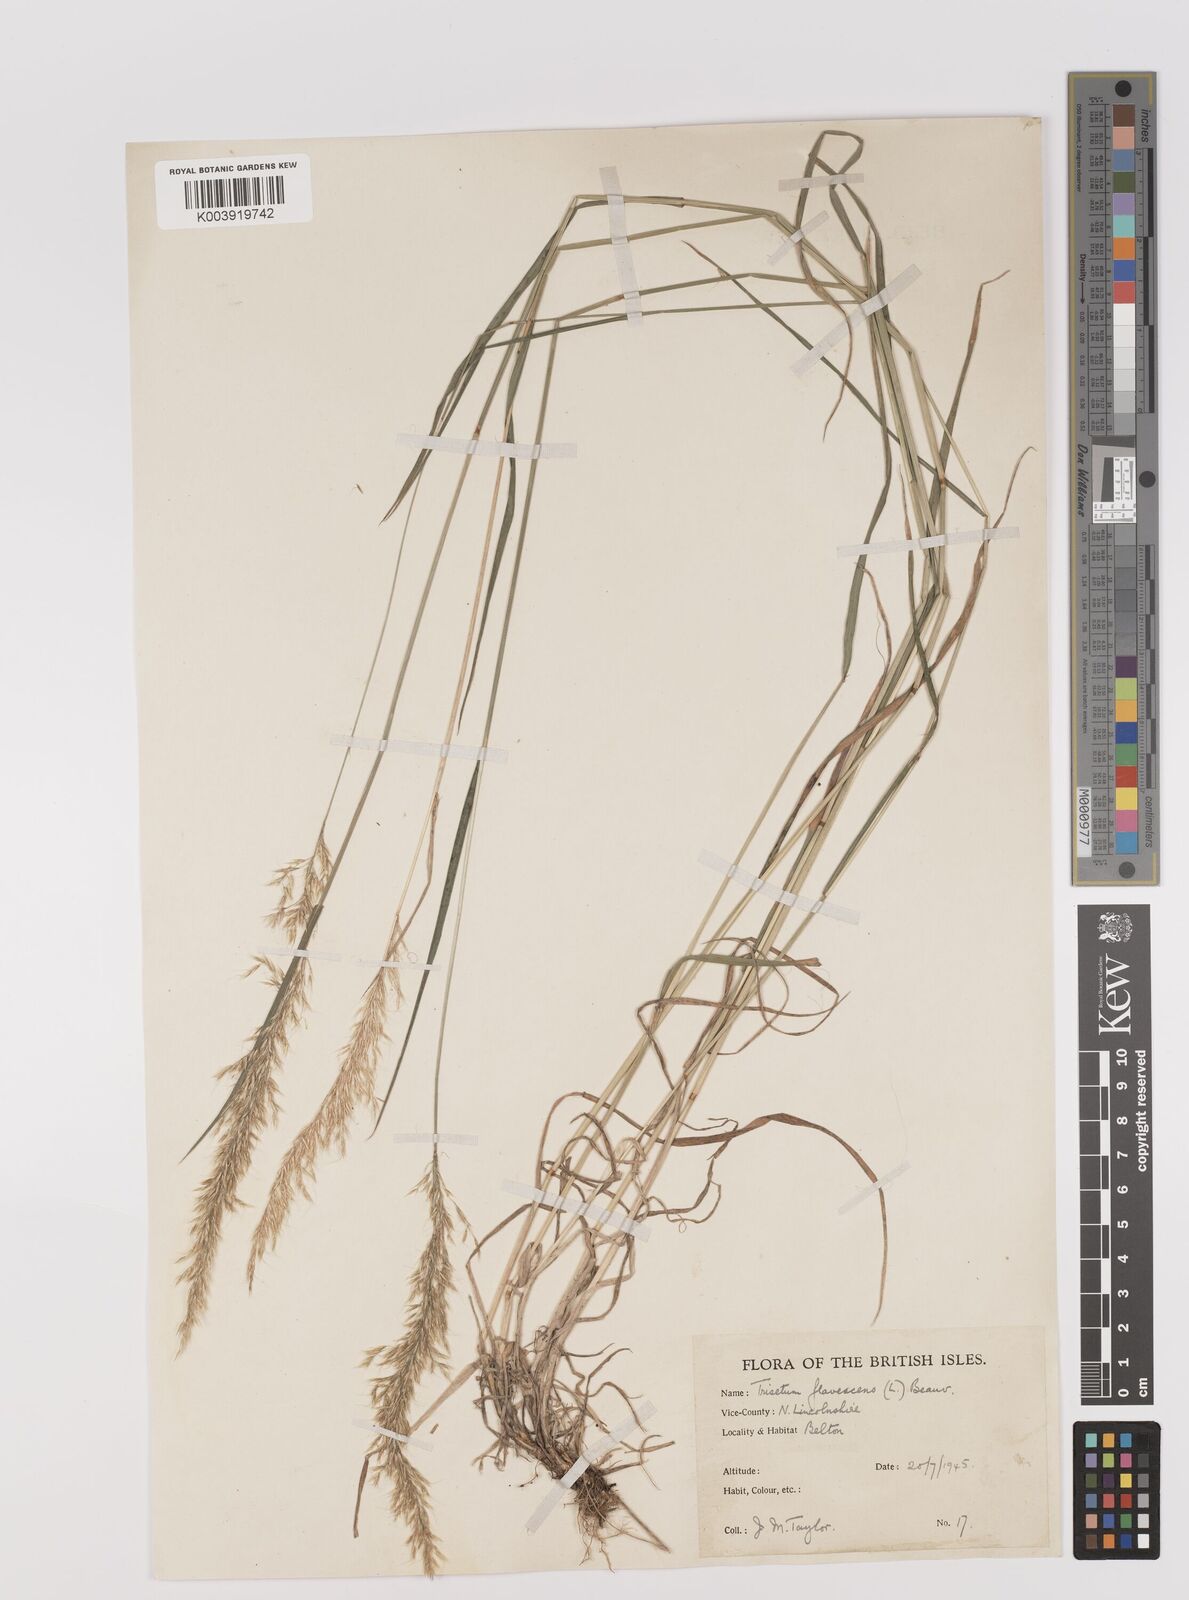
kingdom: Plantae
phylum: Tracheophyta
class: Liliopsida
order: Poales
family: Poaceae
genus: Trisetum
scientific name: Trisetum flavescens
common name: Yellow oat-grass
